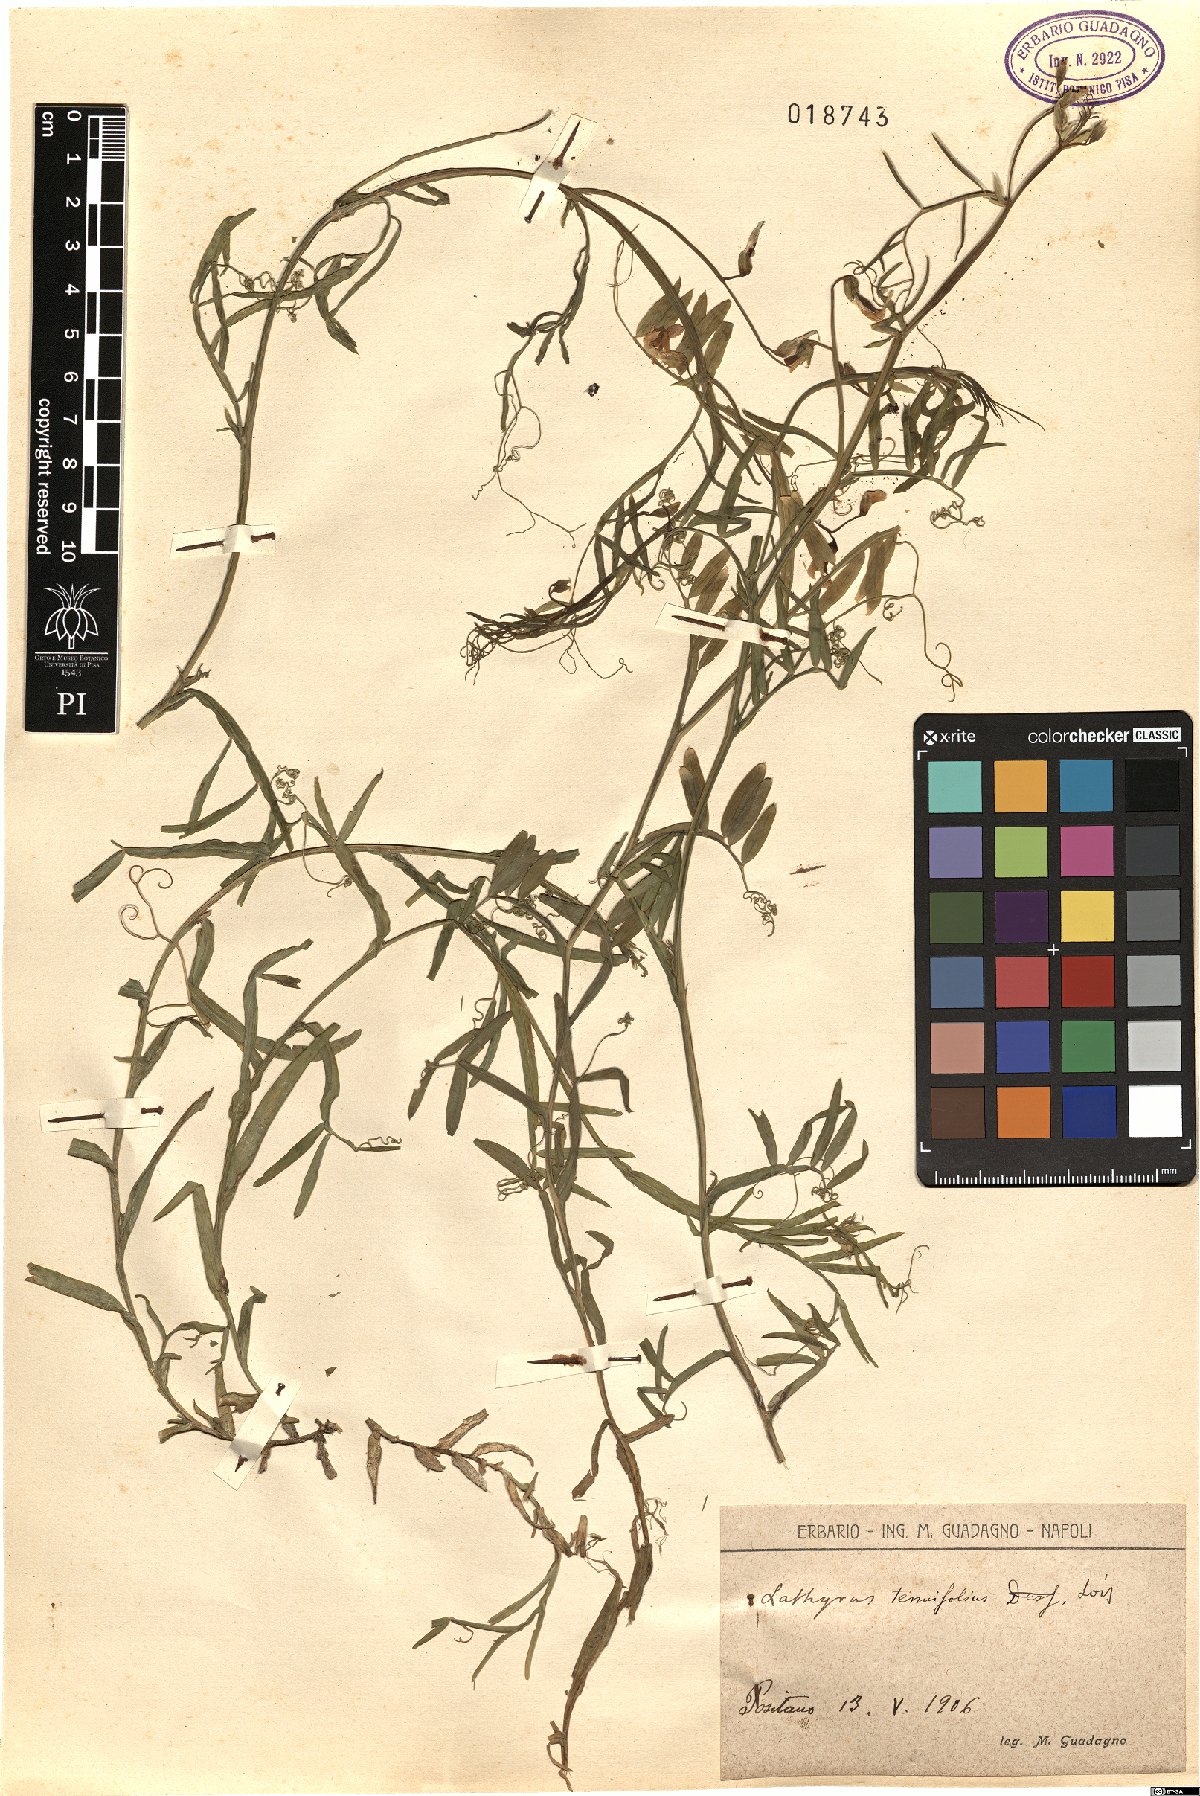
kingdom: Plantae
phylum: Tracheophyta
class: Magnoliopsida
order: Fabales
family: Fabaceae
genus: Lathyrus
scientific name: Lathyrus clymenum
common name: Spanish vetchling
